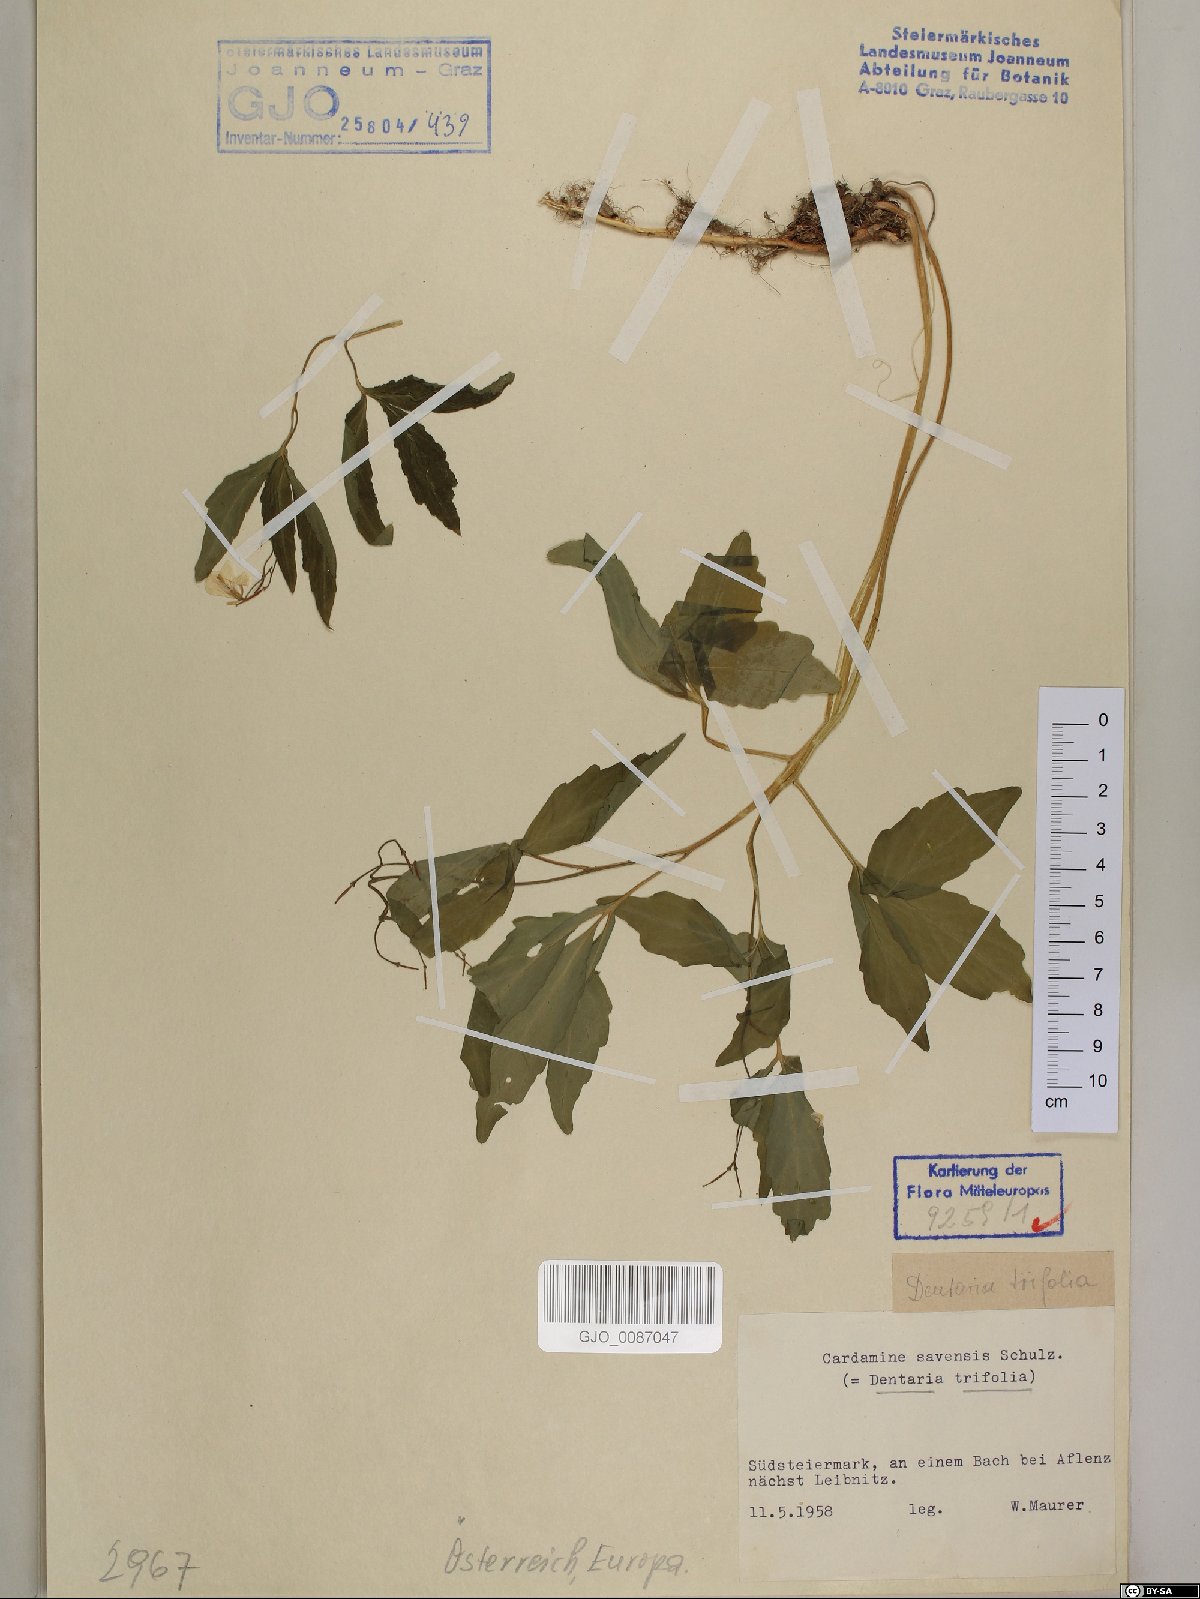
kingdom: Plantae
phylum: Tracheophyta
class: Magnoliopsida
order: Brassicales
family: Brassicaceae
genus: Cardamine
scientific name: Cardamine waldsteinii
